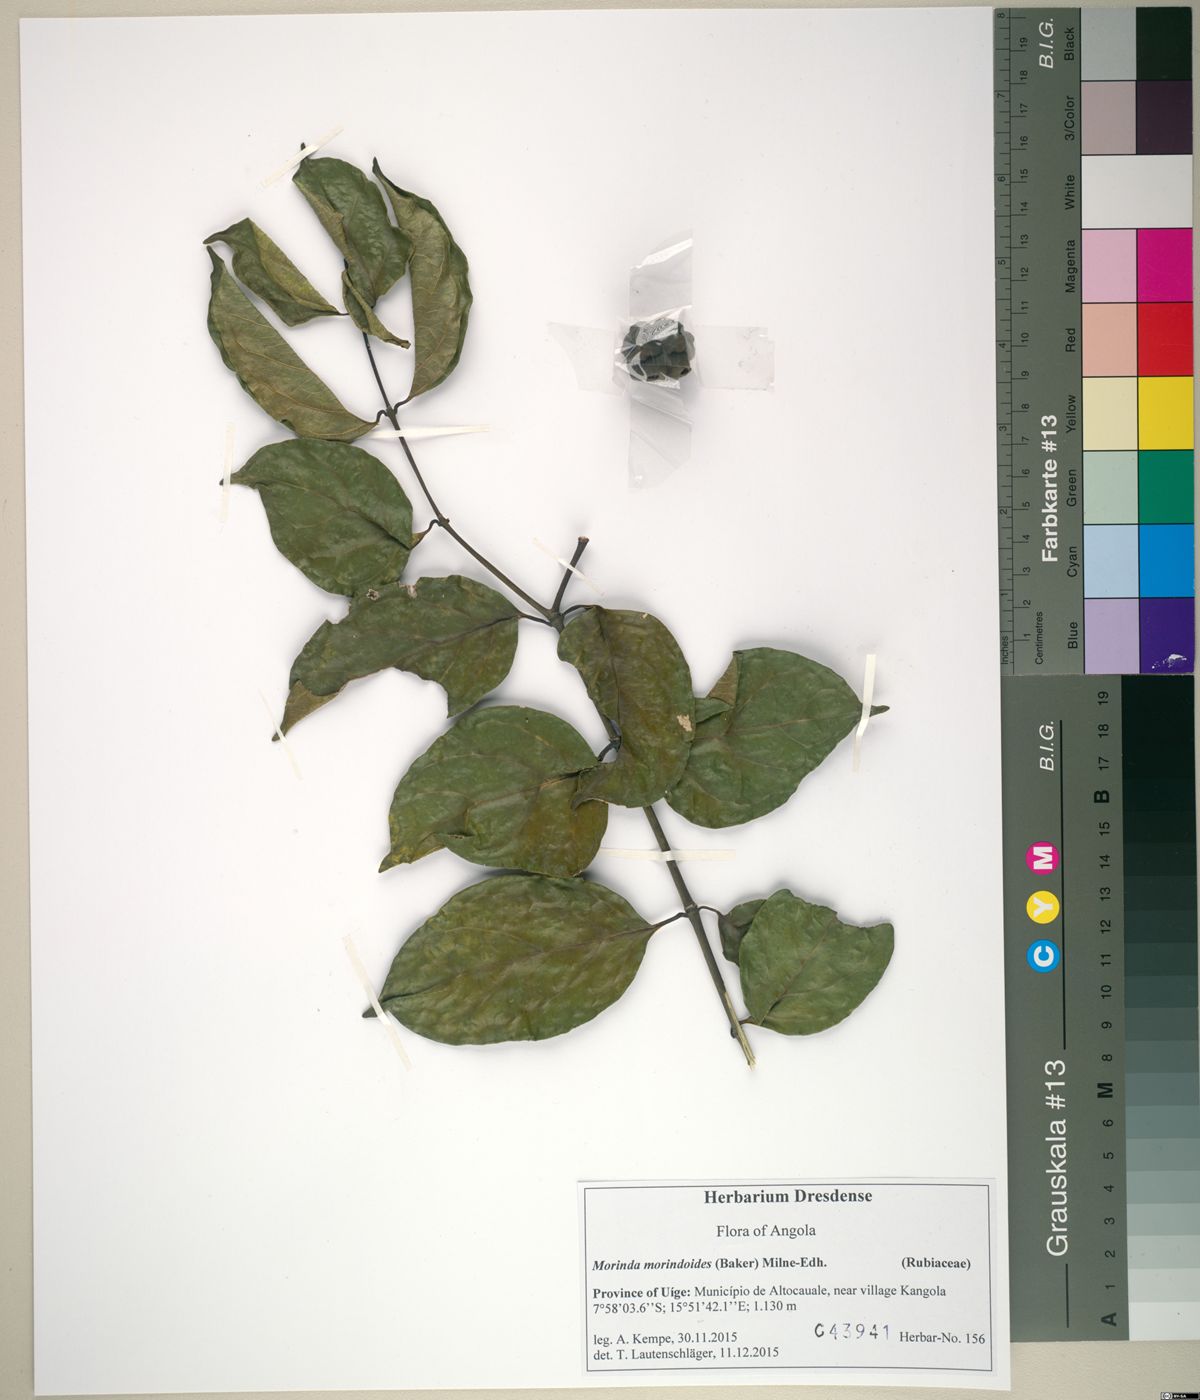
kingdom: Plantae
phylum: Tracheophyta
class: Magnoliopsida
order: Gentianales
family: Rubiaceae
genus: Morinda
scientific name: Morinda morindoides
